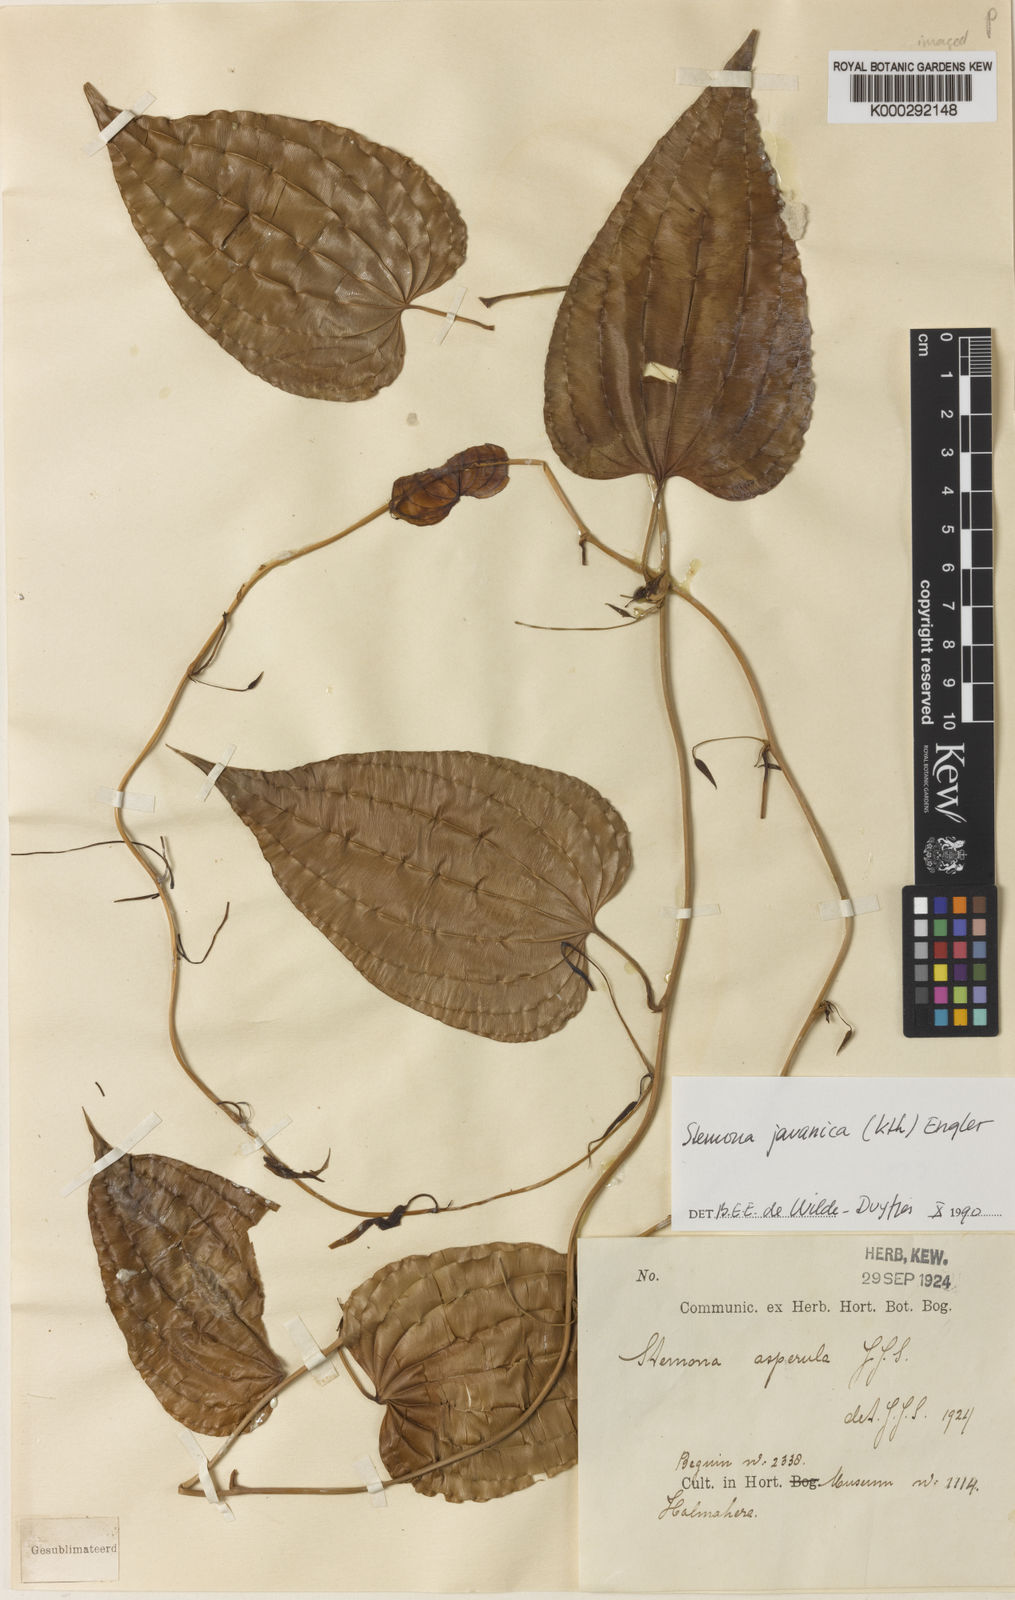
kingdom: Plantae
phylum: Tracheophyta
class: Liliopsida
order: Pandanales
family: Stemonaceae
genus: Stemona
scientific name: Stemona javanica
